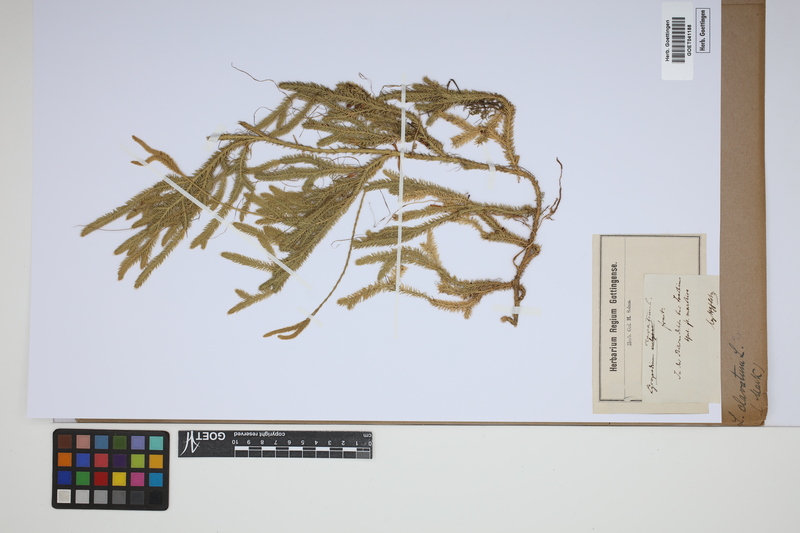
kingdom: Plantae
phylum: Tracheophyta
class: Lycopodiopsida
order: Lycopodiales
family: Lycopodiaceae
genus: Lycopodium
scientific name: Lycopodium clavatum
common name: Stag's-horn clubmoss
